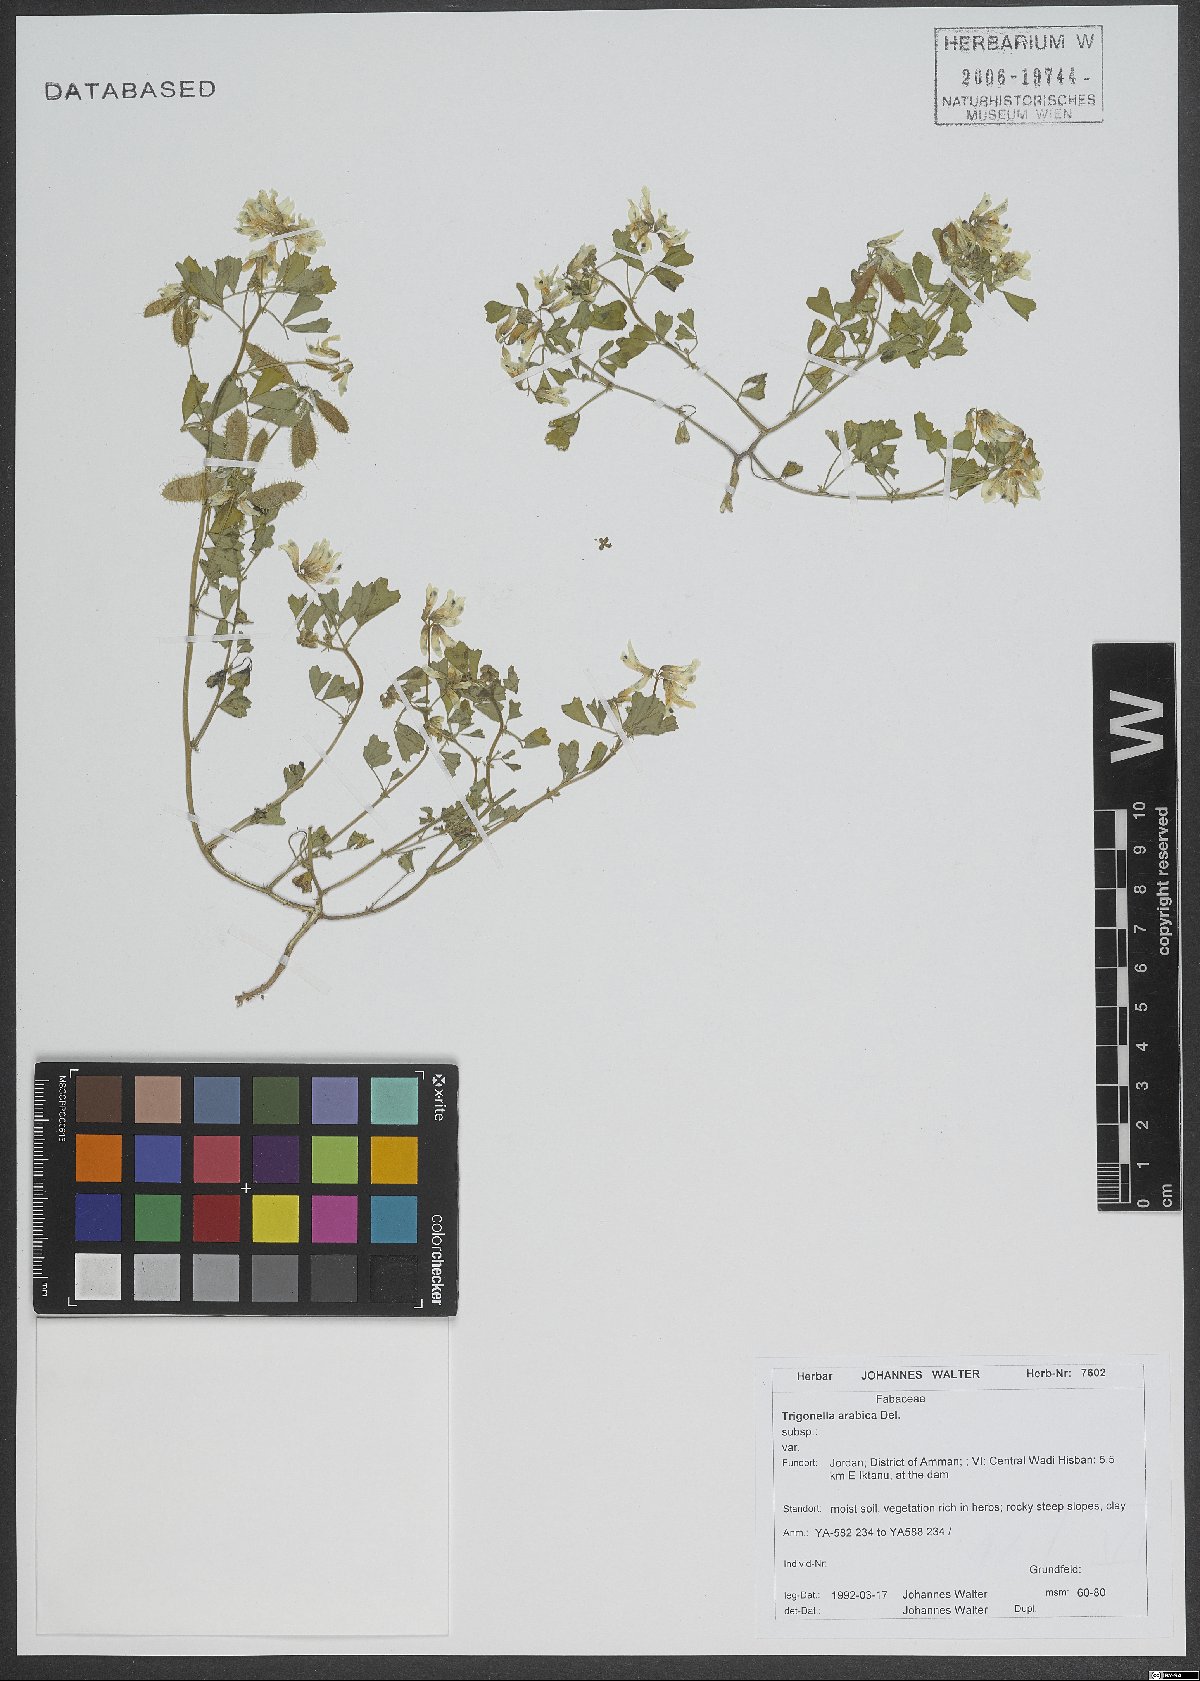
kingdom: Plantae
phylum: Tracheophyta
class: Magnoliopsida
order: Fabales
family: Fabaceae
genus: Trigonella
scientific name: Trigonella arabica
